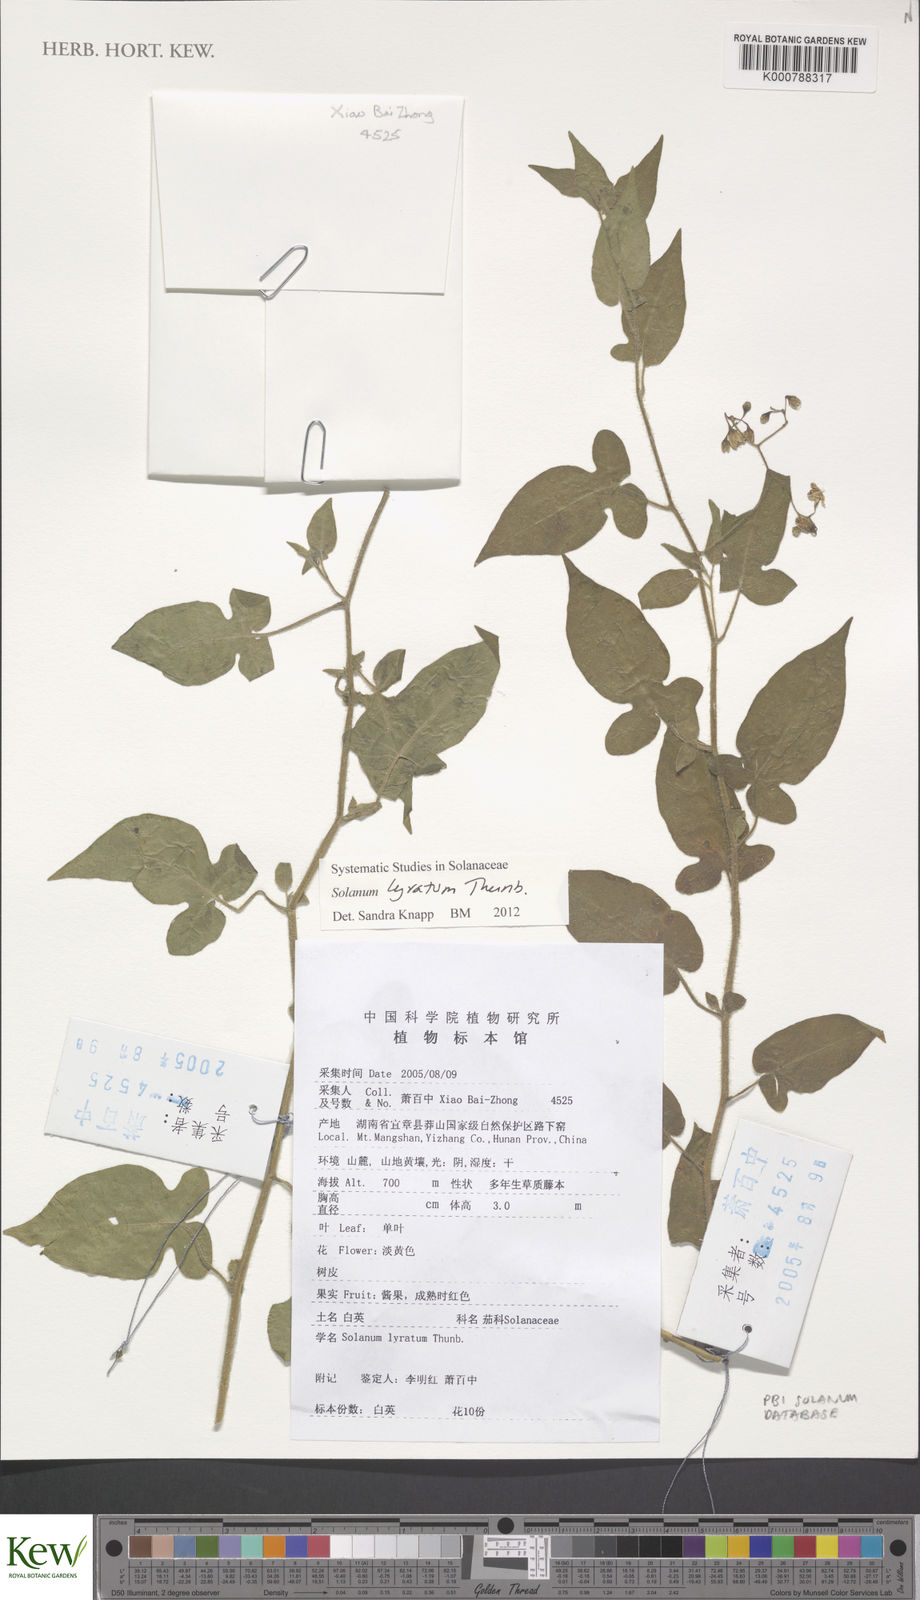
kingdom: Plantae
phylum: Tracheophyta
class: Magnoliopsida
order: Solanales
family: Solanaceae
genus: Solanum
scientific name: Solanum lyratum
